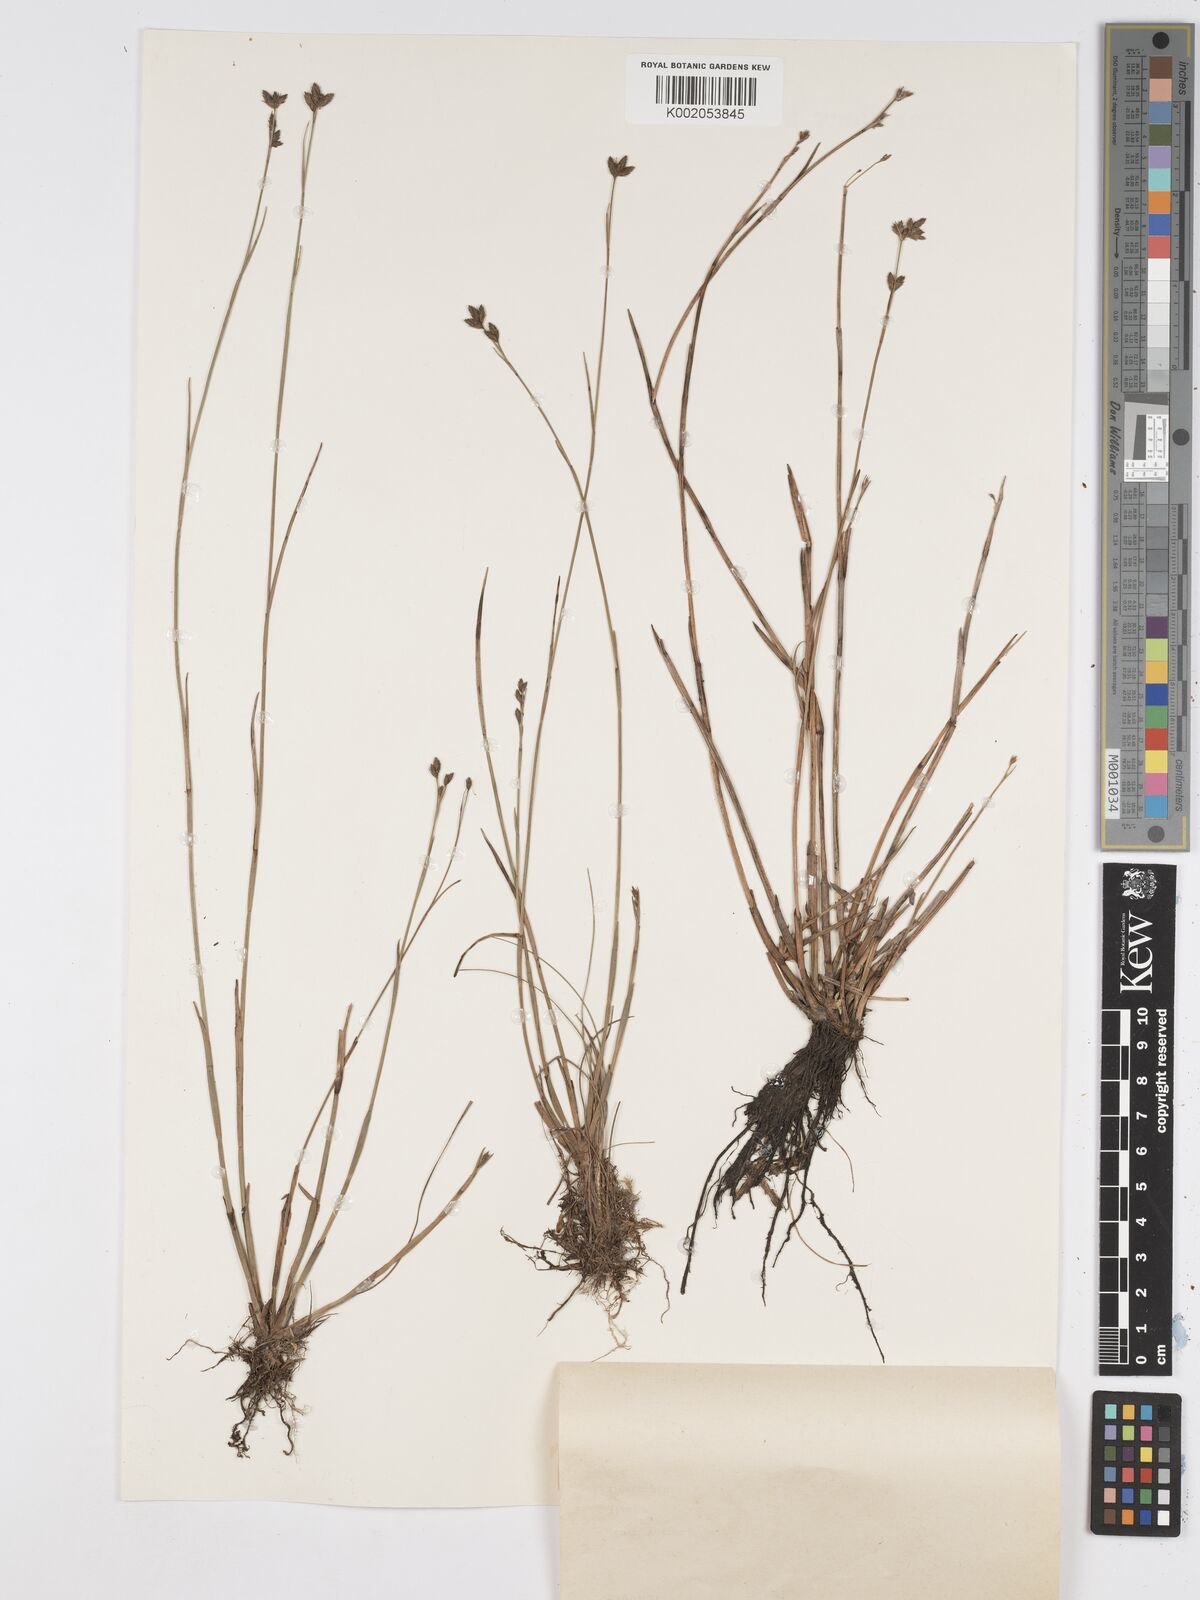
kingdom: Plantae
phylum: Tracheophyta
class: Liliopsida
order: Poales
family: Cyperaceae
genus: Fuirena
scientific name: Fuirena stricta
